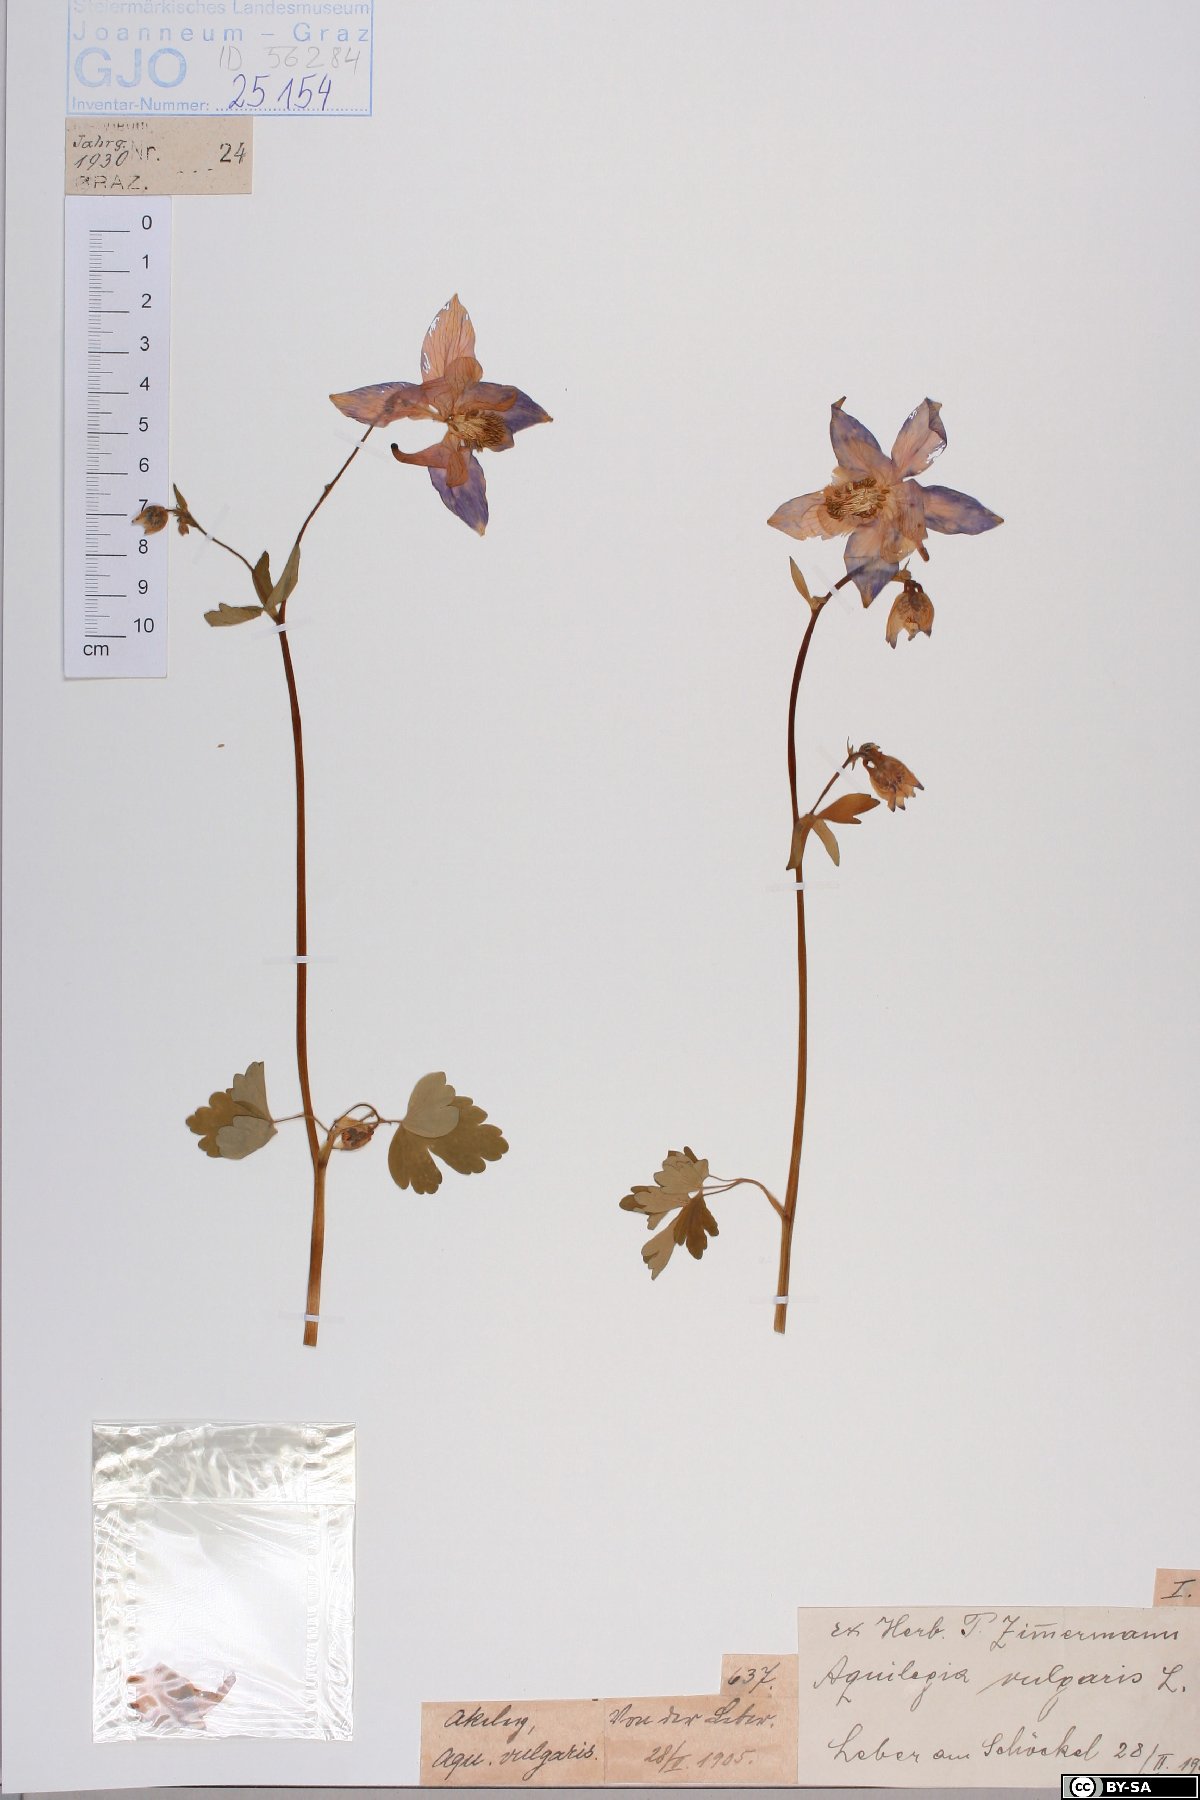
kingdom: Plantae
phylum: Tracheophyta
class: Magnoliopsida
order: Ranunculales
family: Ranunculaceae
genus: Aquilegia
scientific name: Aquilegia vulgaris
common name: Columbine
